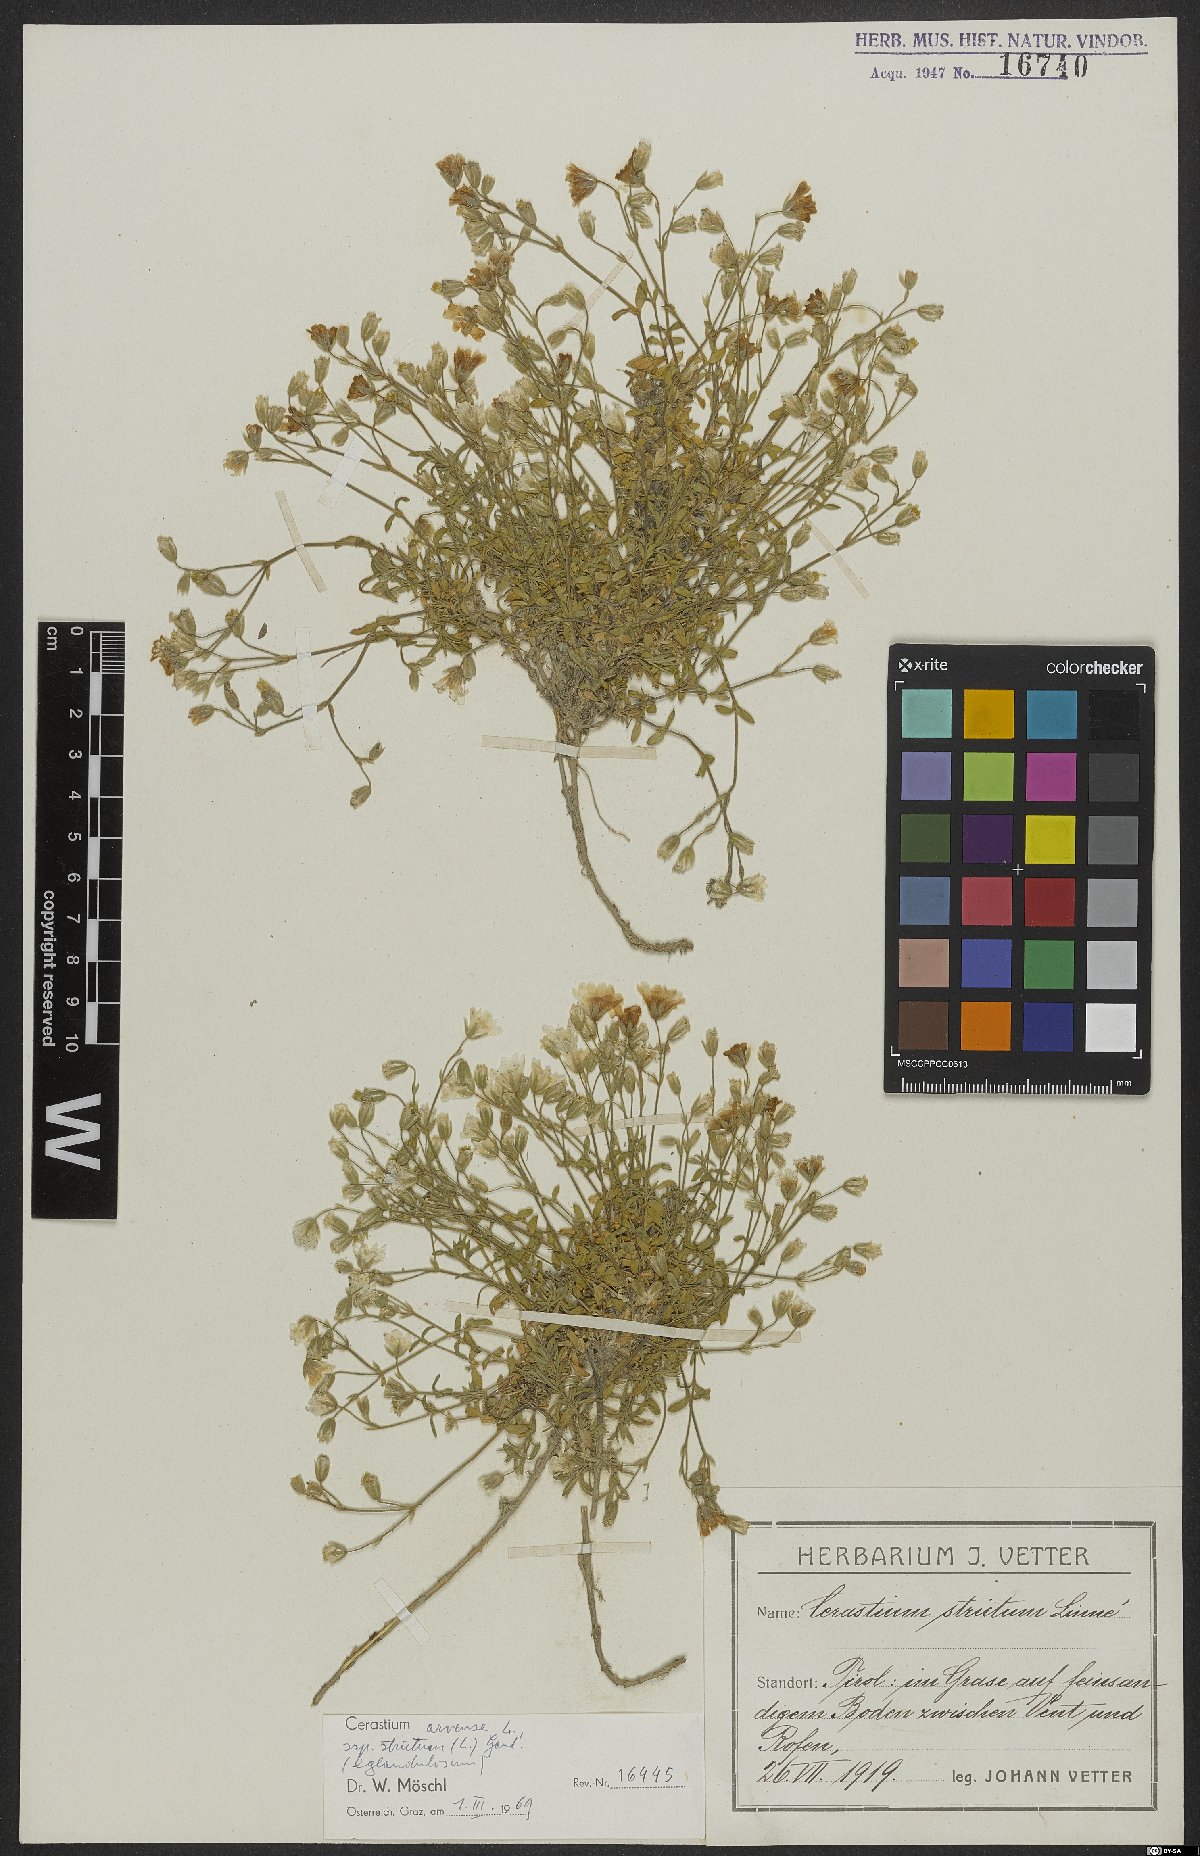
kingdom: Plantae
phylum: Tracheophyta
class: Magnoliopsida
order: Caryophyllales
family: Caryophyllaceae
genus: Cerastium
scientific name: Cerastium elongatum
